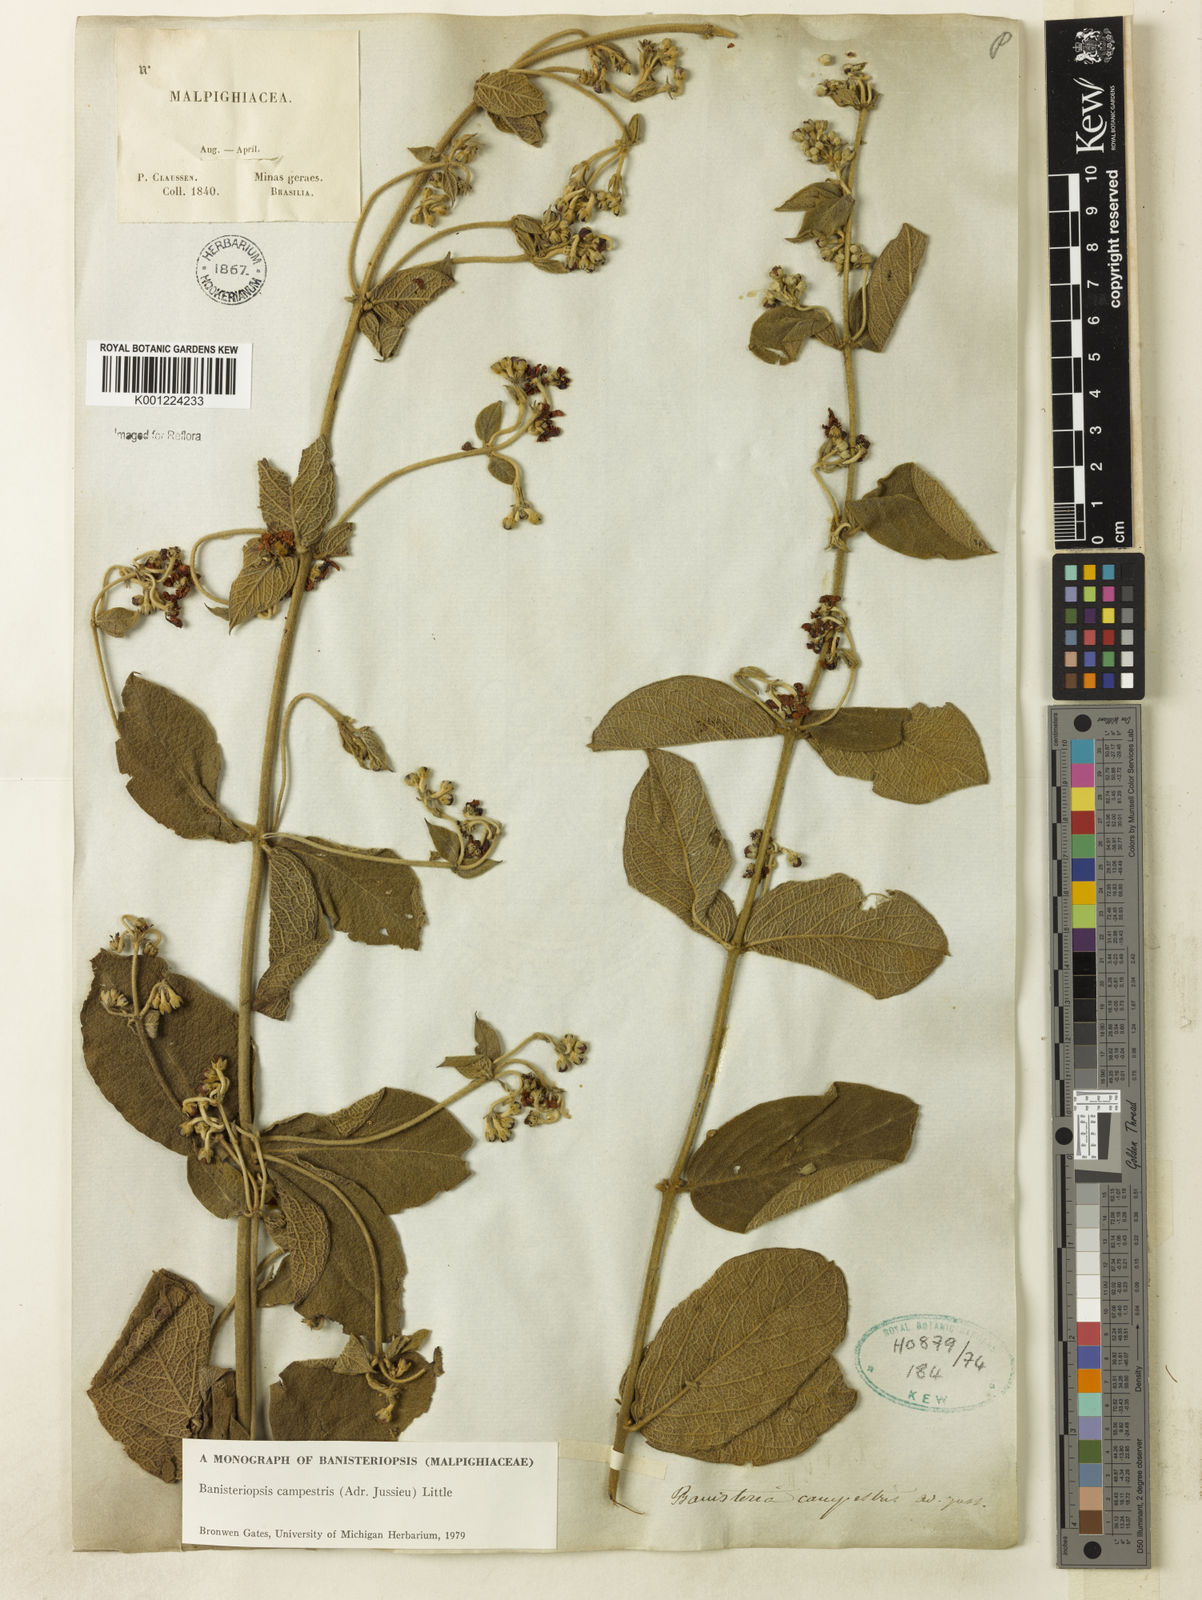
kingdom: Plantae
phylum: Tracheophyta
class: Magnoliopsida
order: Malpighiales
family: Malpighiaceae
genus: Banisteriopsis
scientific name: Banisteriopsis campestris
